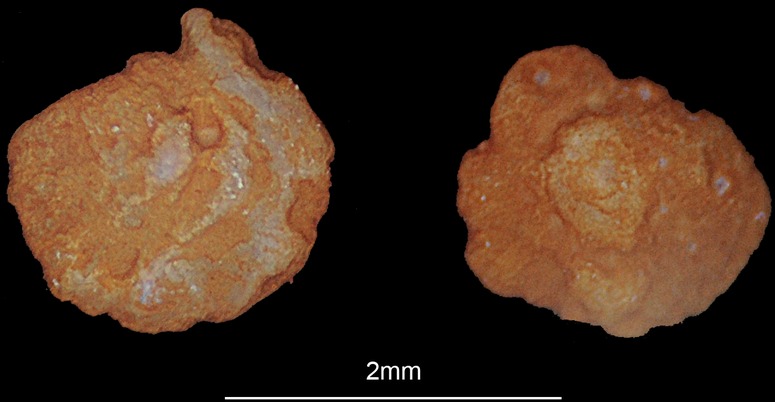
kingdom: Animalia
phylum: Chordata
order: Cypriniformes
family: Cyprinidae
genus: Acanthobrama
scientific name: Acanthobrama marmid
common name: Mesopotamian bream
